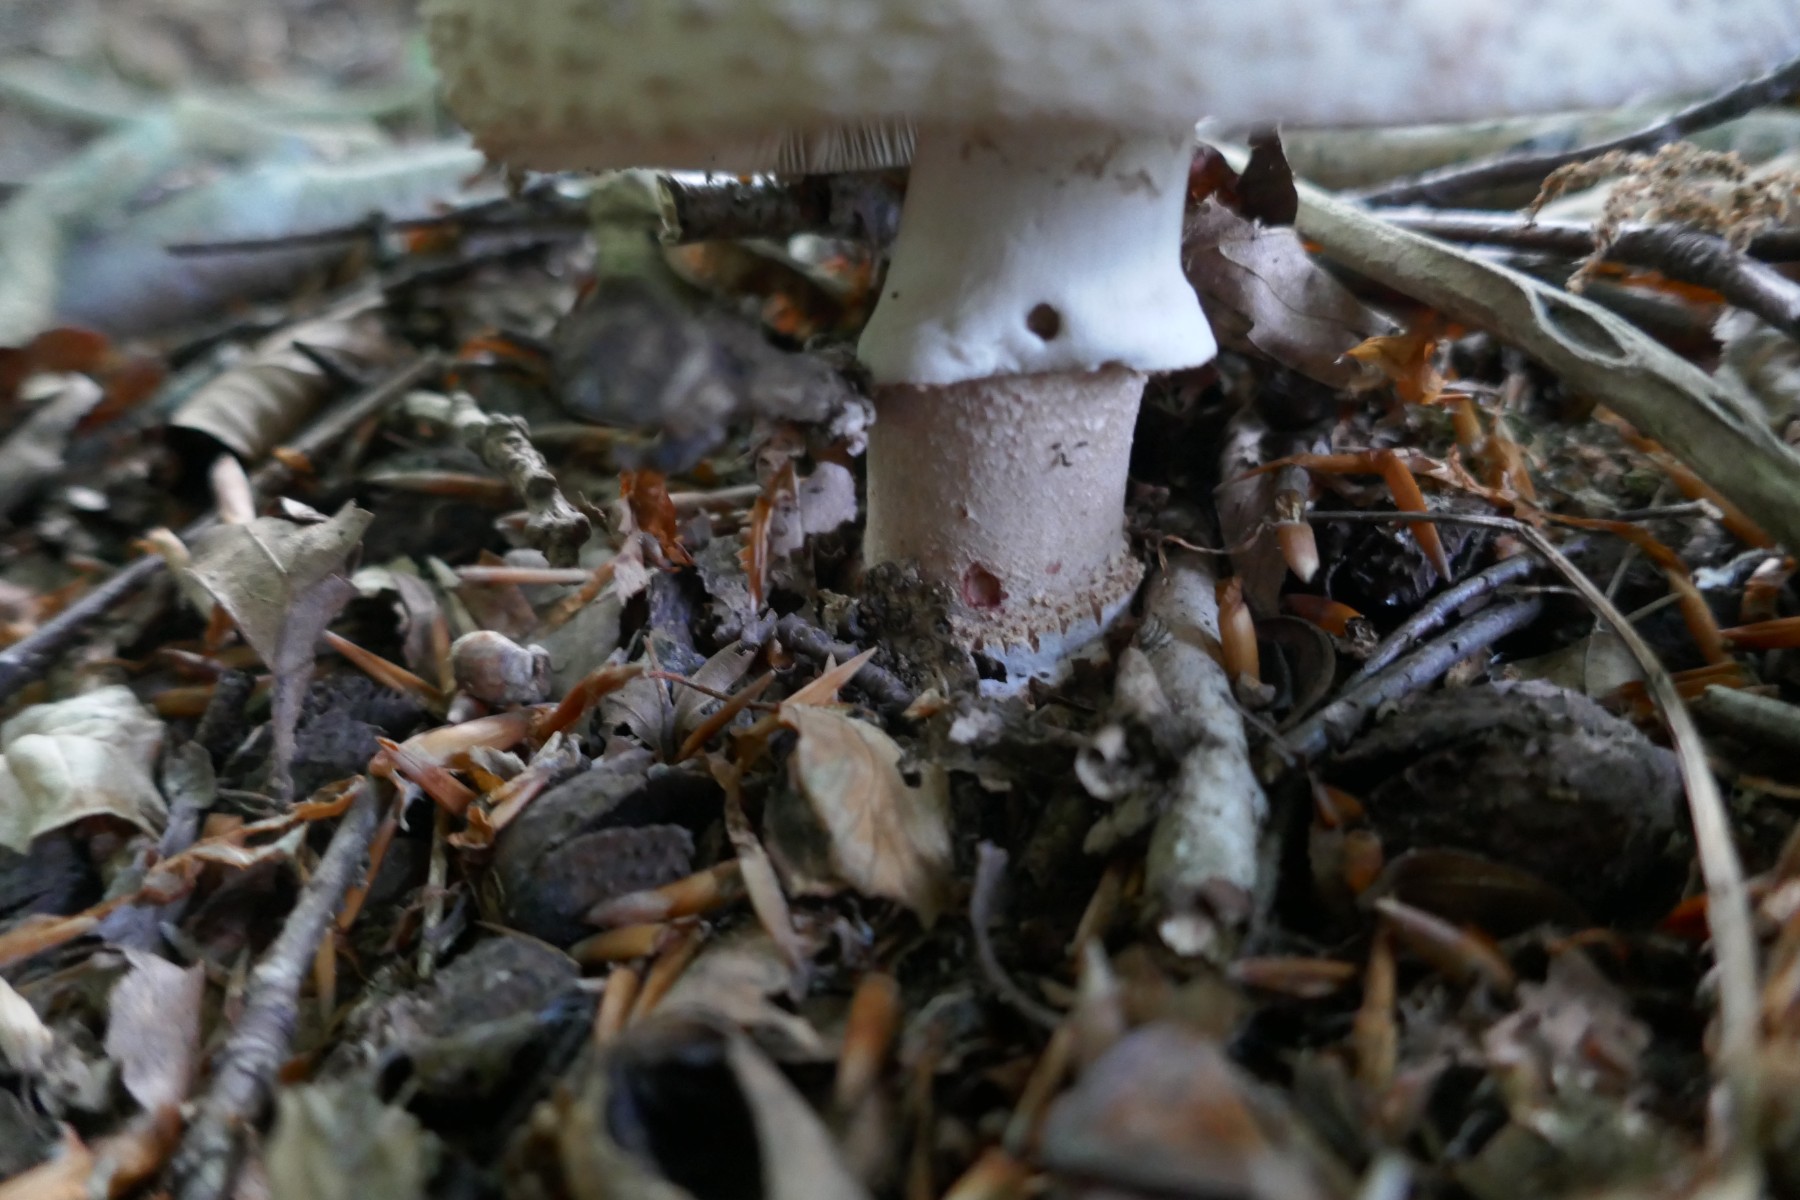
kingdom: Fungi
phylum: Basidiomycota
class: Agaricomycetes
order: Agaricales
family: Amanitaceae
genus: Amanita
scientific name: Amanita rubescens
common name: rødmende fluesvamp
